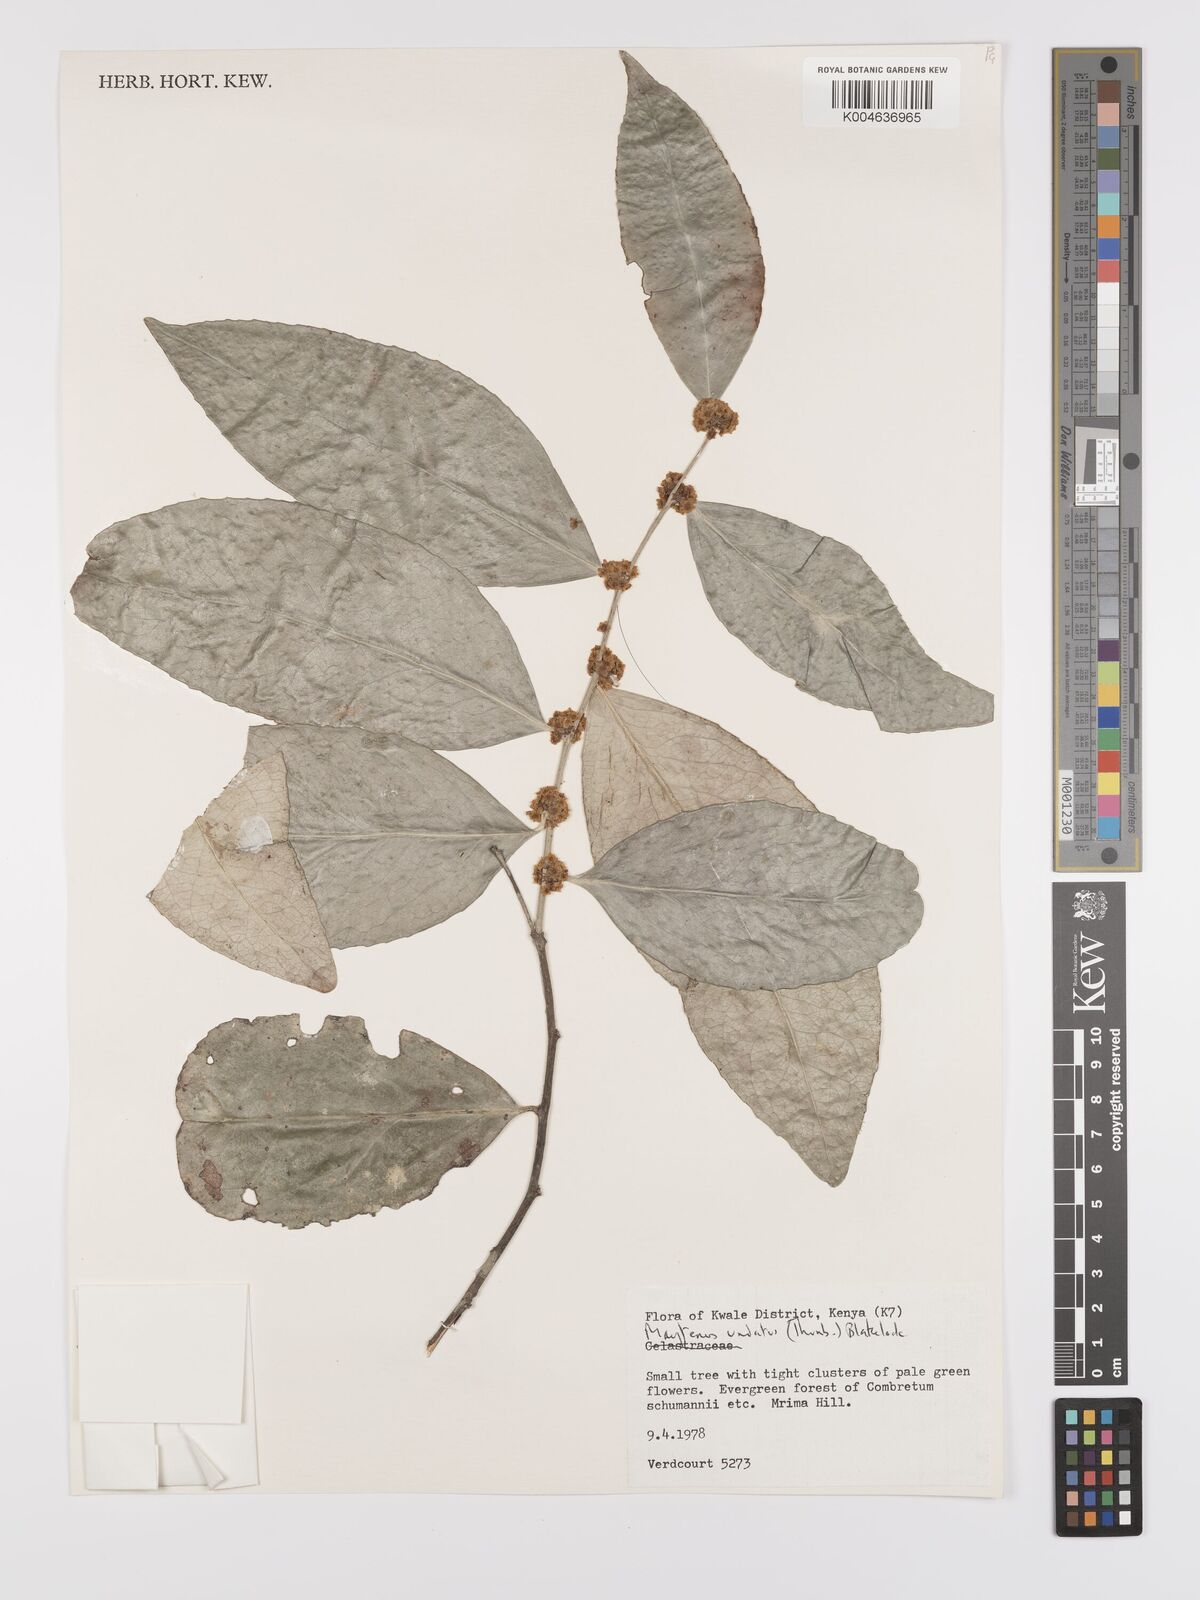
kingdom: Plantae
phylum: Tracheophyta
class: Magnoliopsida
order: Celastrales
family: Celastraceae
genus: Gymnosporia
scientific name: Gymnosporia undata
